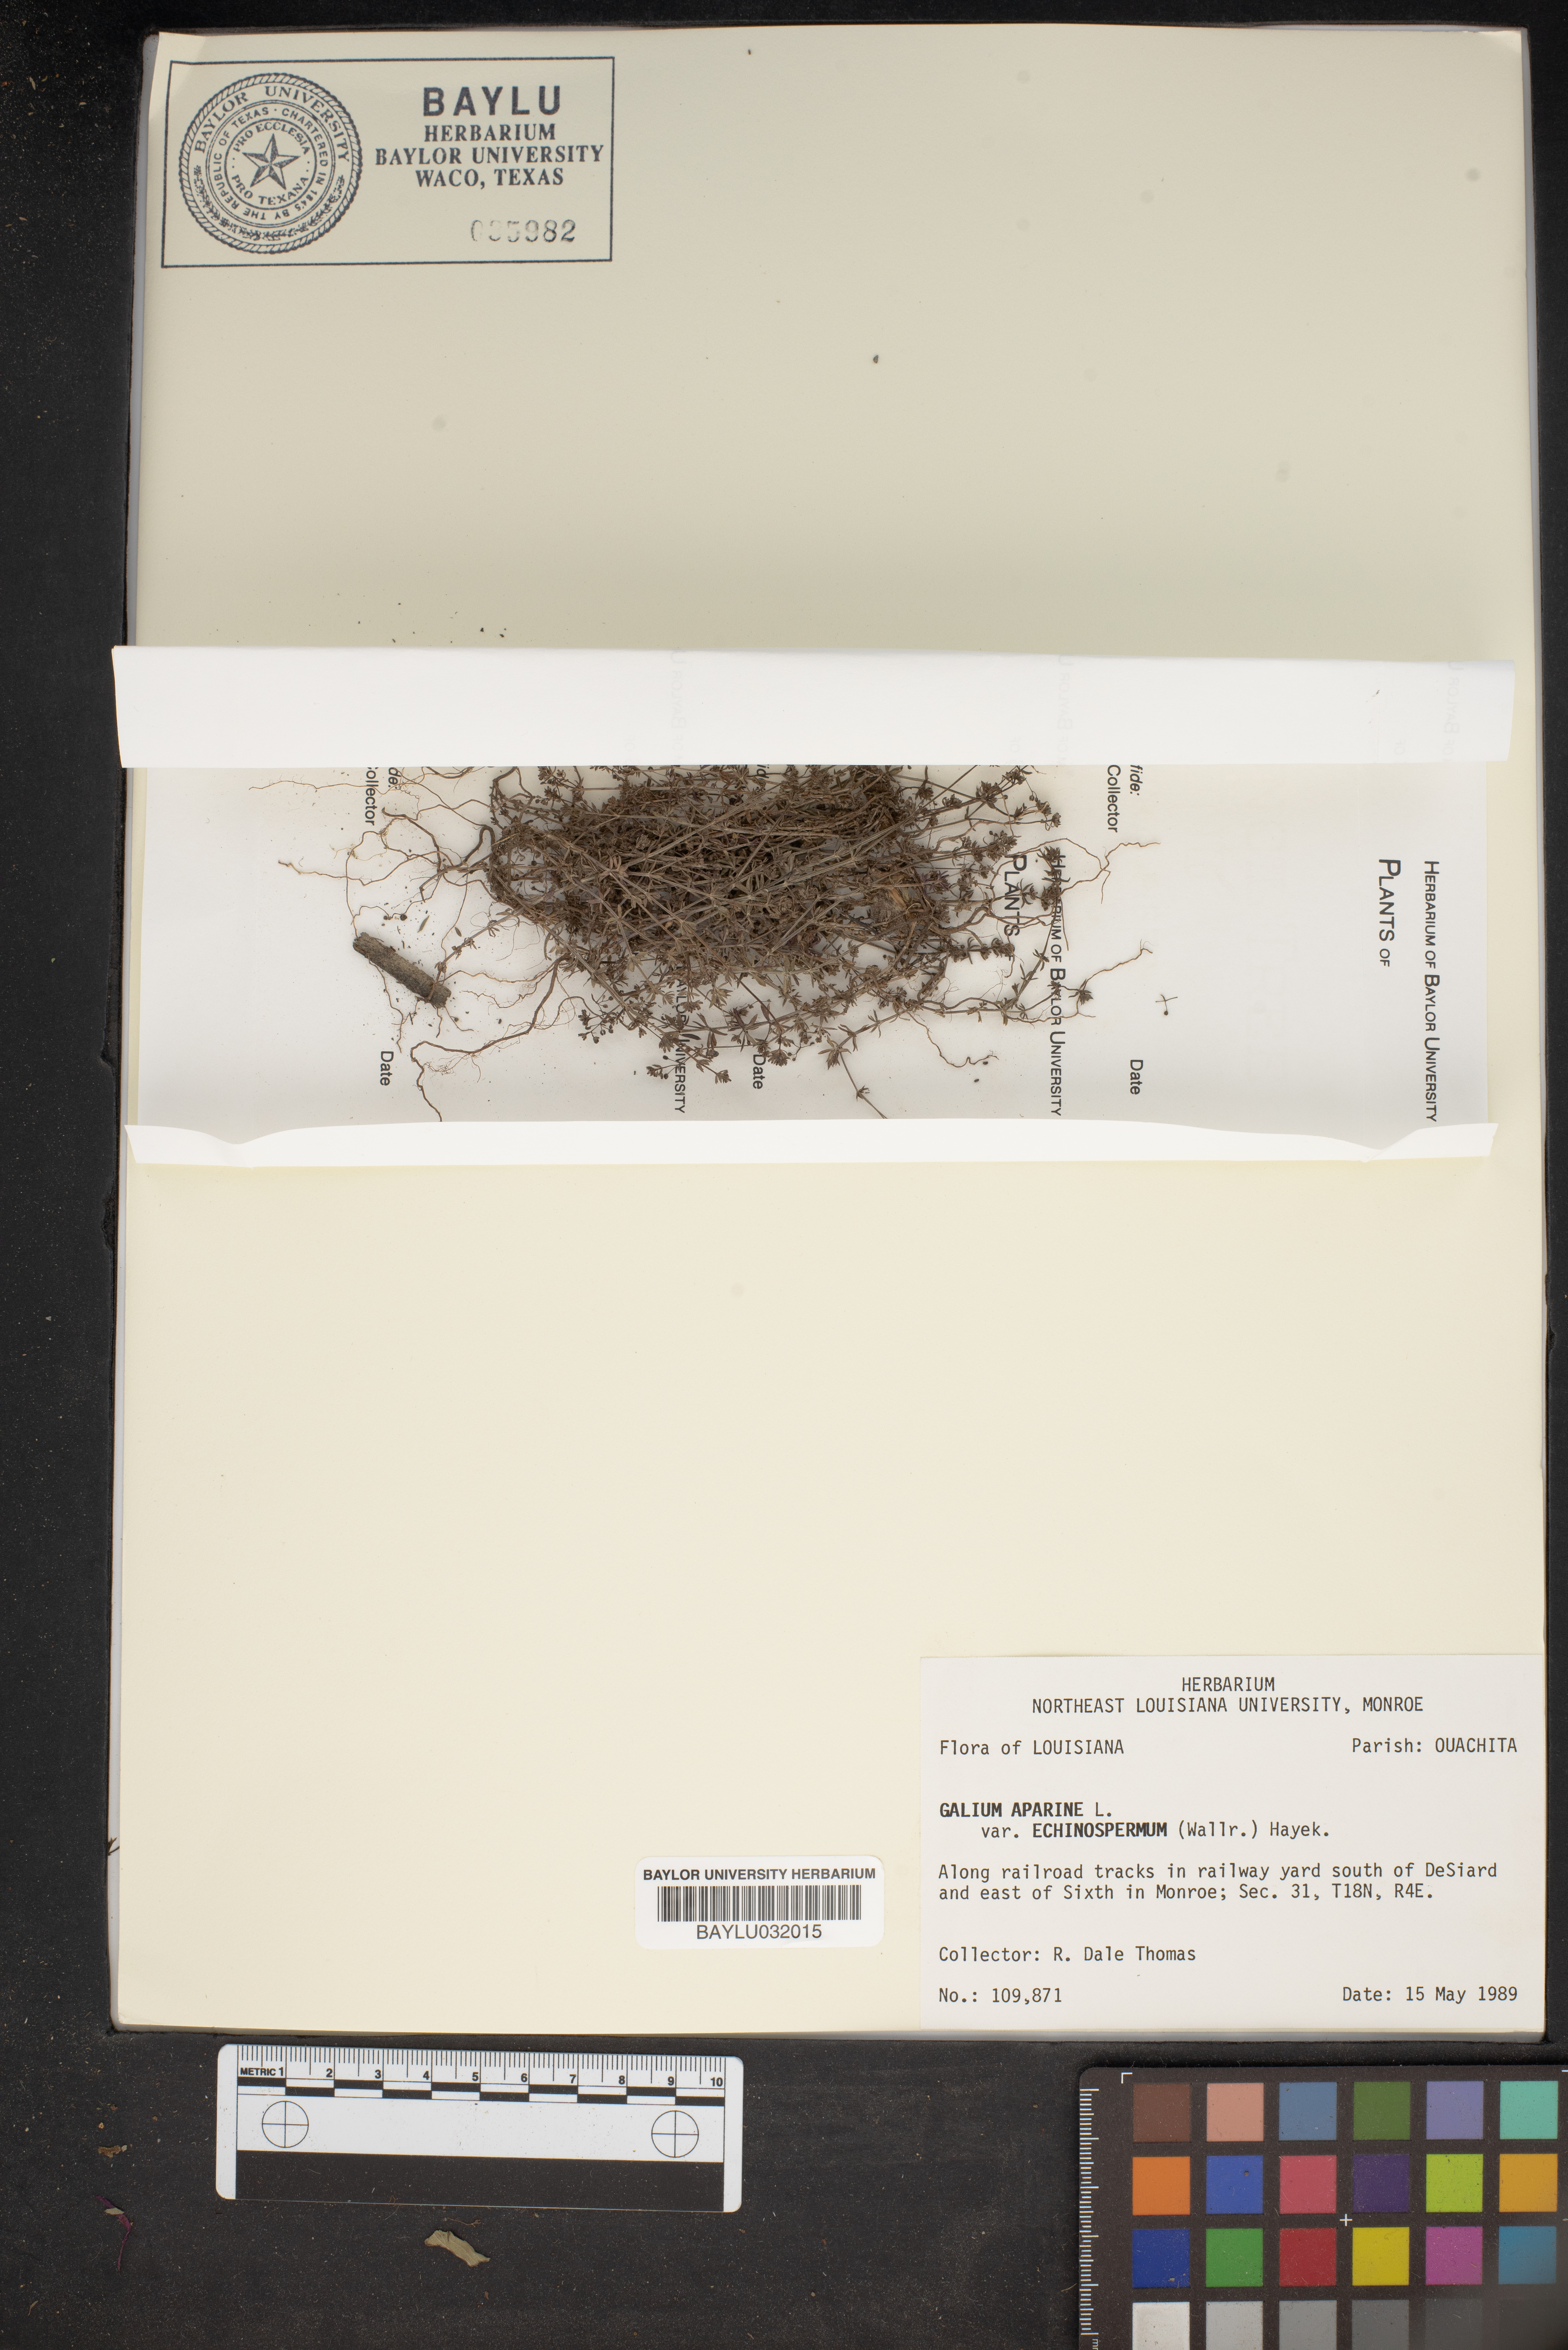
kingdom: Plantae
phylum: Tracheophyta
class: Magnoliopsida
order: Gentianales
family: Rubiaceae
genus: Galium
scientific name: Galium spurium
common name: False cleavers
